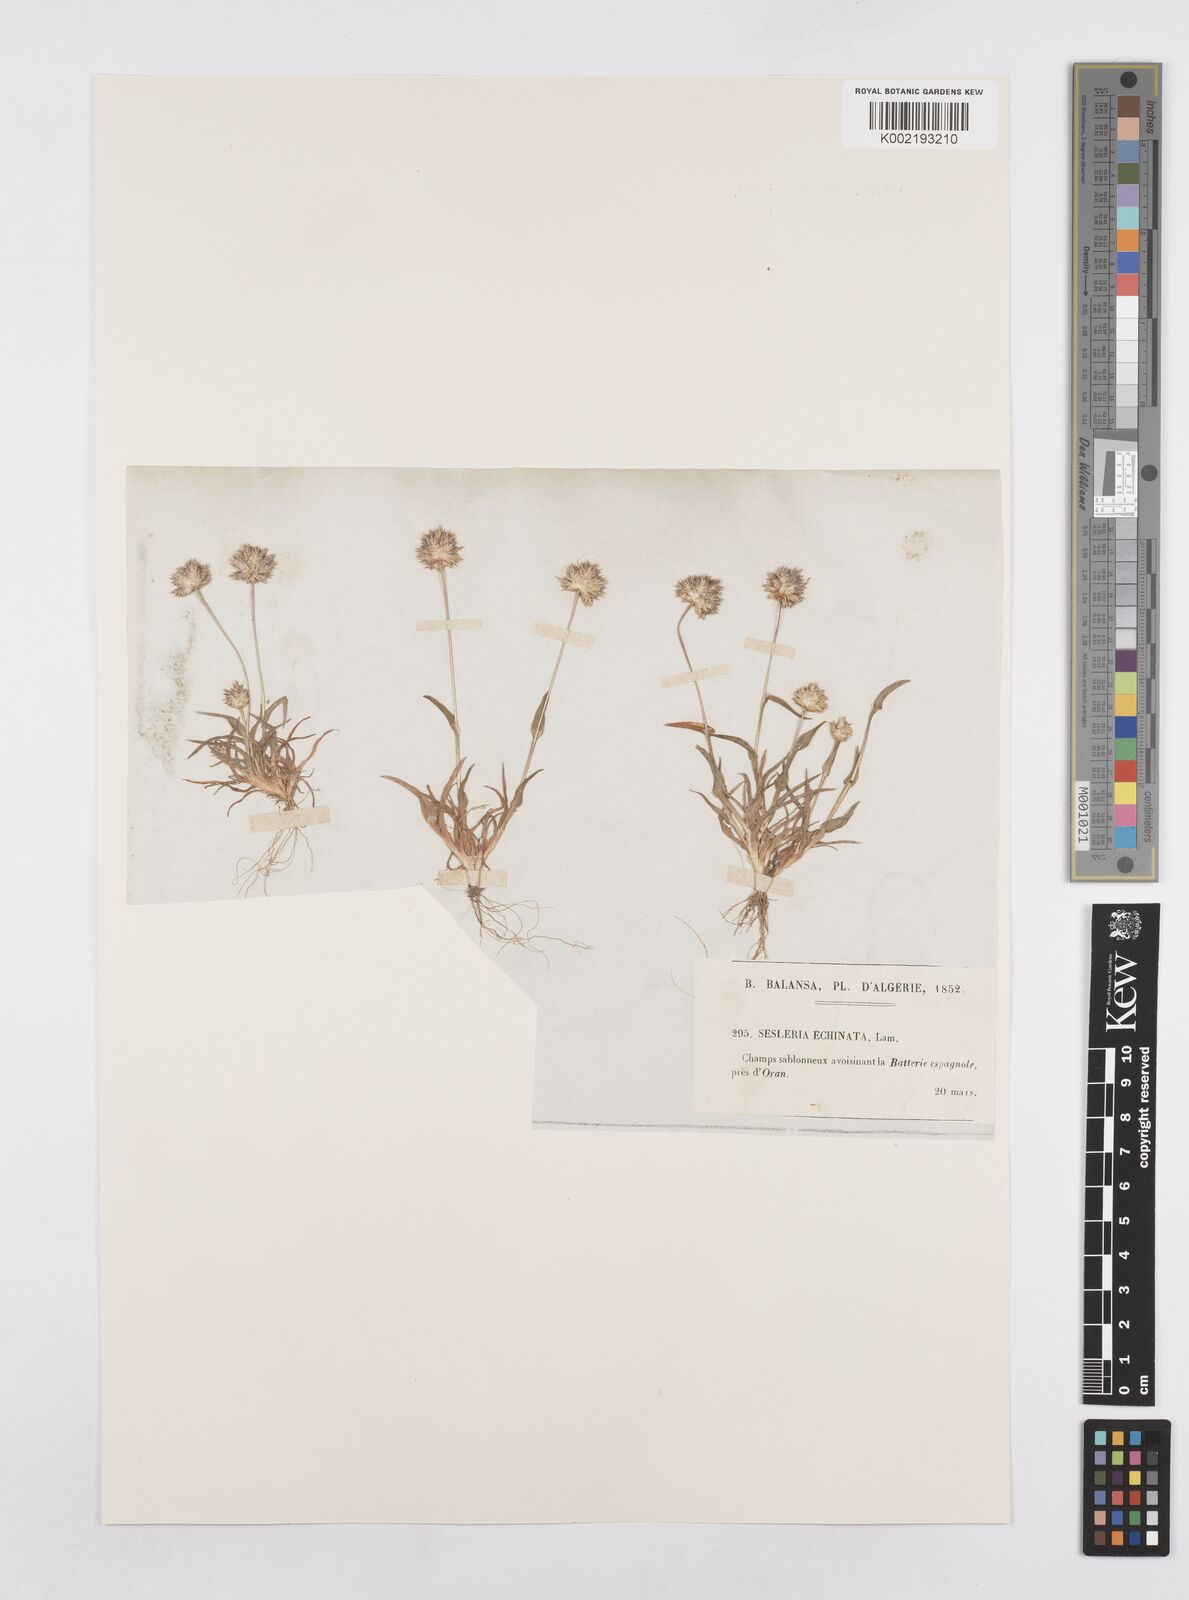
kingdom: Plantae
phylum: Tracheophyta
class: Liliopsida
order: Poales
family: Poaceae
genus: Ammochloa
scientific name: Ammochloa pungens
